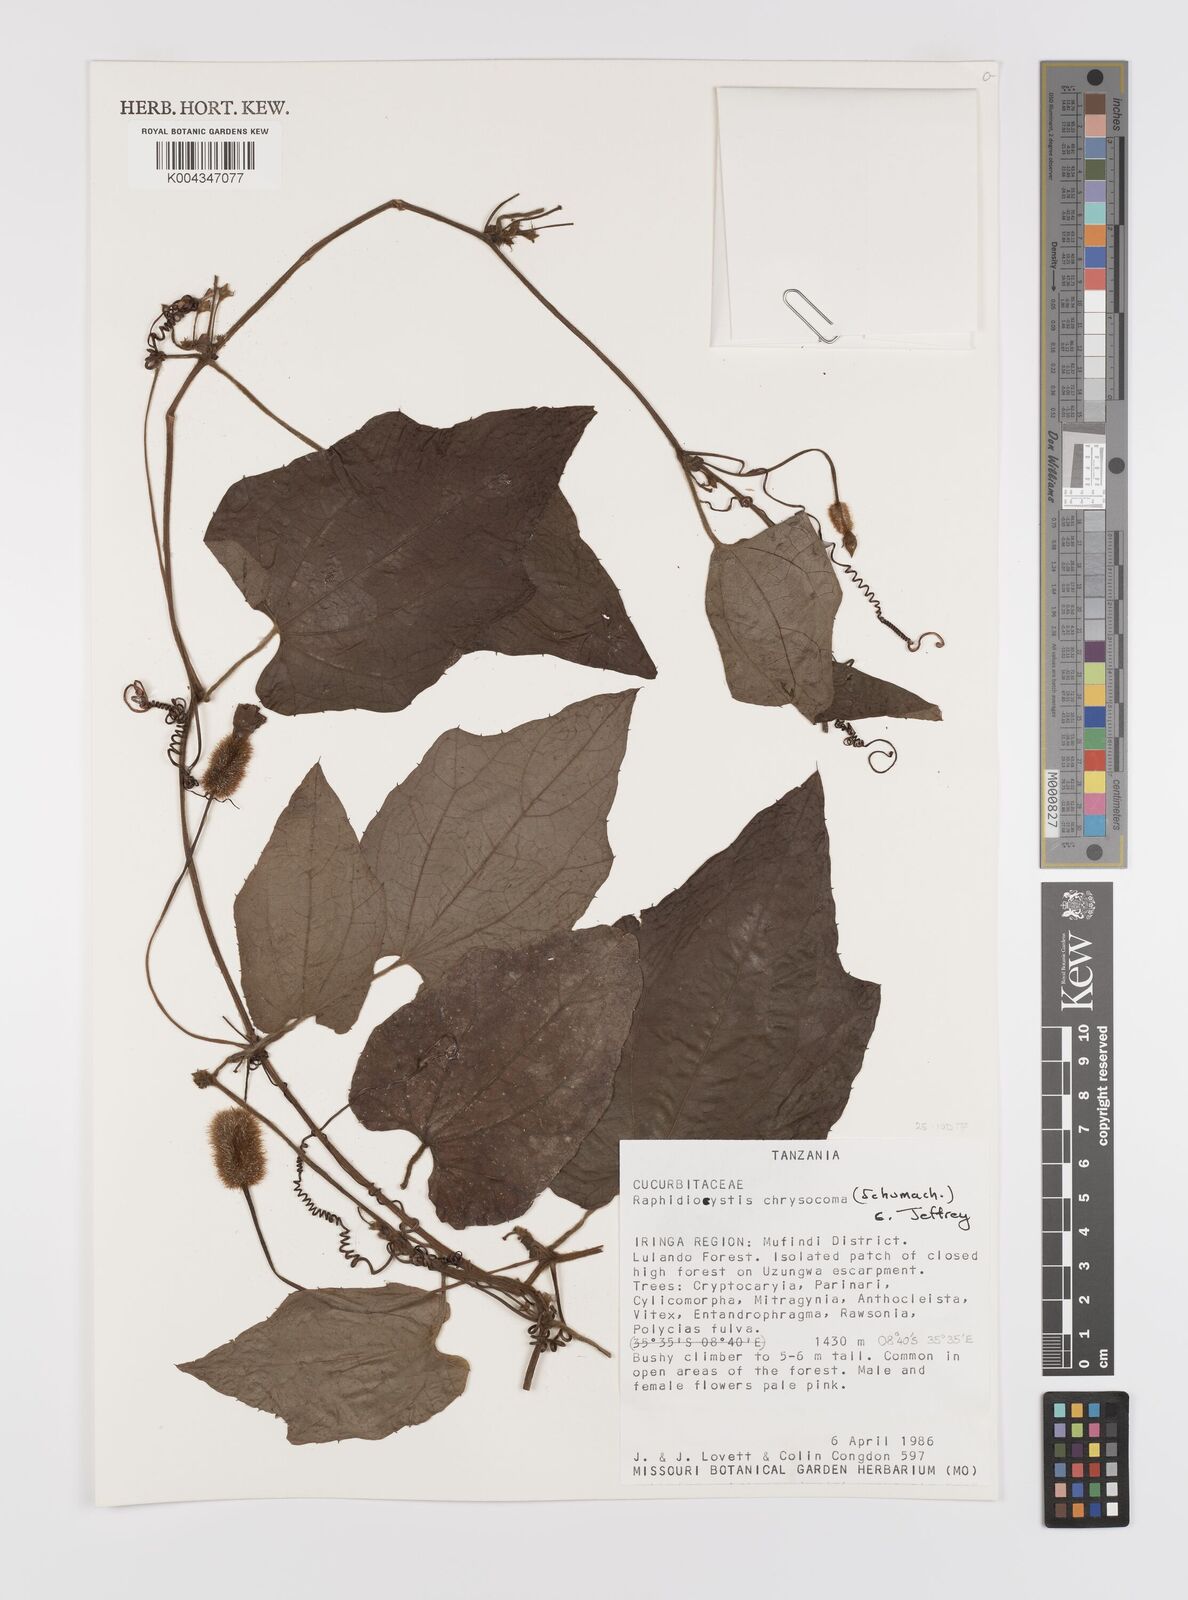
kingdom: Plantae
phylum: Tracheophyta
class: Magnoliopsida
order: Cucurbitales
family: Cucurbitaceae
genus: Raphidiocystis
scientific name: Raphidiocystis chrysocoma
